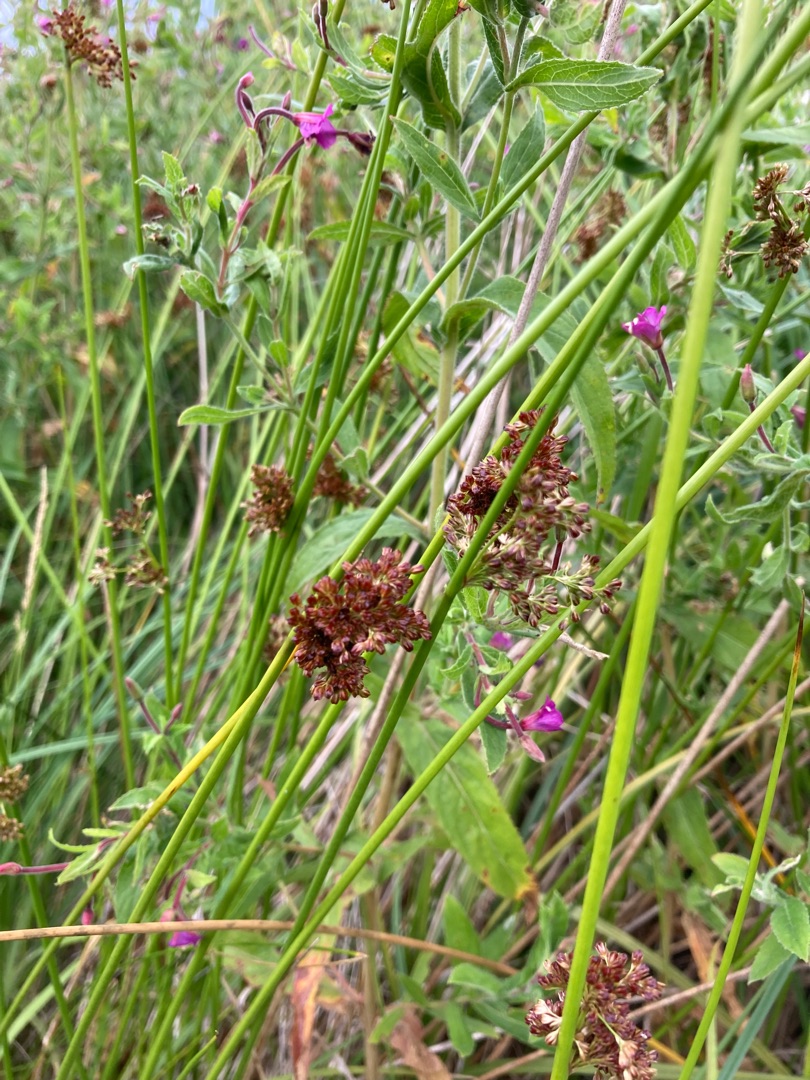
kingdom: Plantae
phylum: Tracheophyta
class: Liliopsida
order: Poales
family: Juncaceae
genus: Juncus
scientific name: Juncus effusus
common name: Lyse-siv
